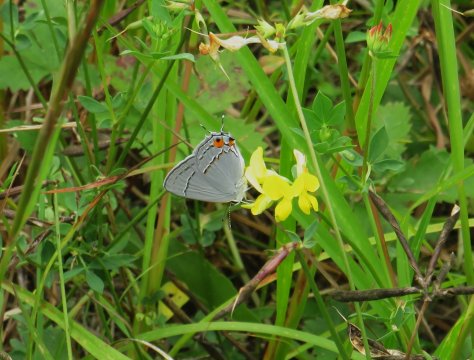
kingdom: Animalia
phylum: Arthropoda
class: Insecta
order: Lepidoptera
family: Lycaenidae
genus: Strymon
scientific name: Strymon melinus
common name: Gray Hairstreak
